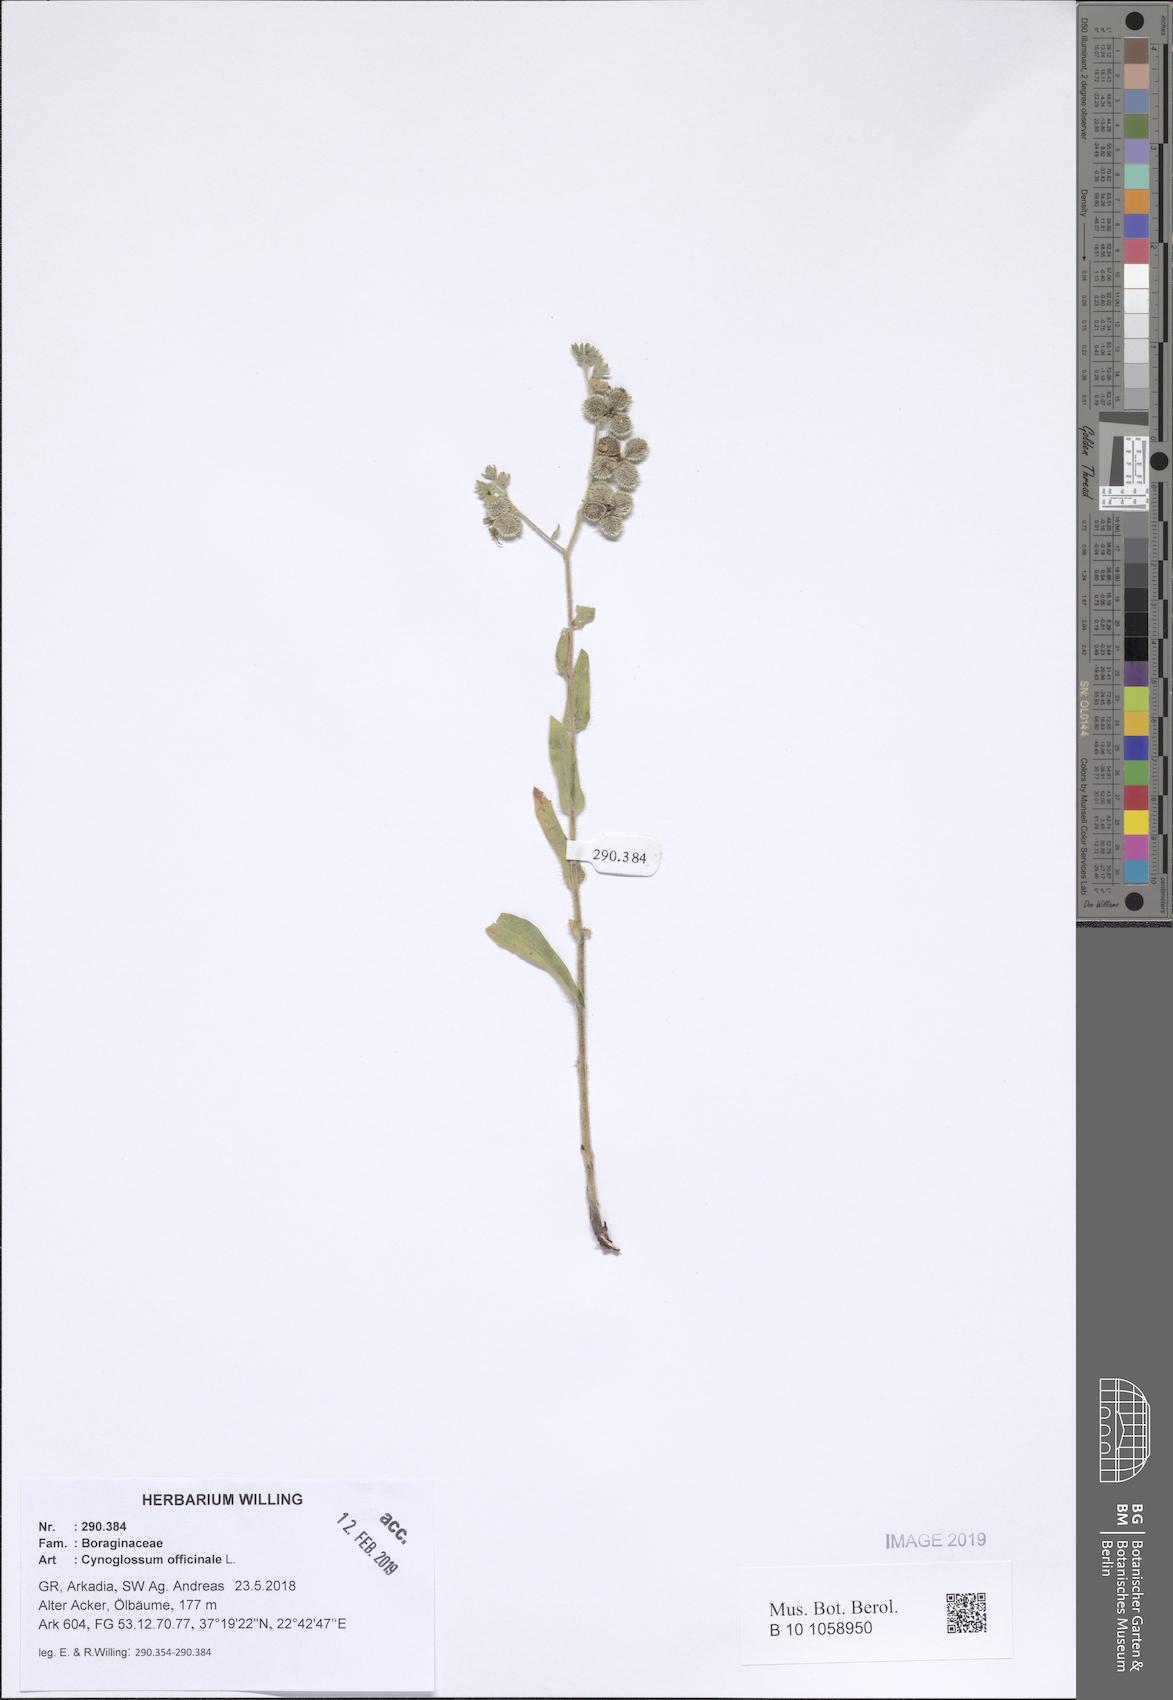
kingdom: Plantae
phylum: Tracheophyta
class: Magnoliopsida
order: Boraginales
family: Boraginaceae
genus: Rindera
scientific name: Rindera columnae
